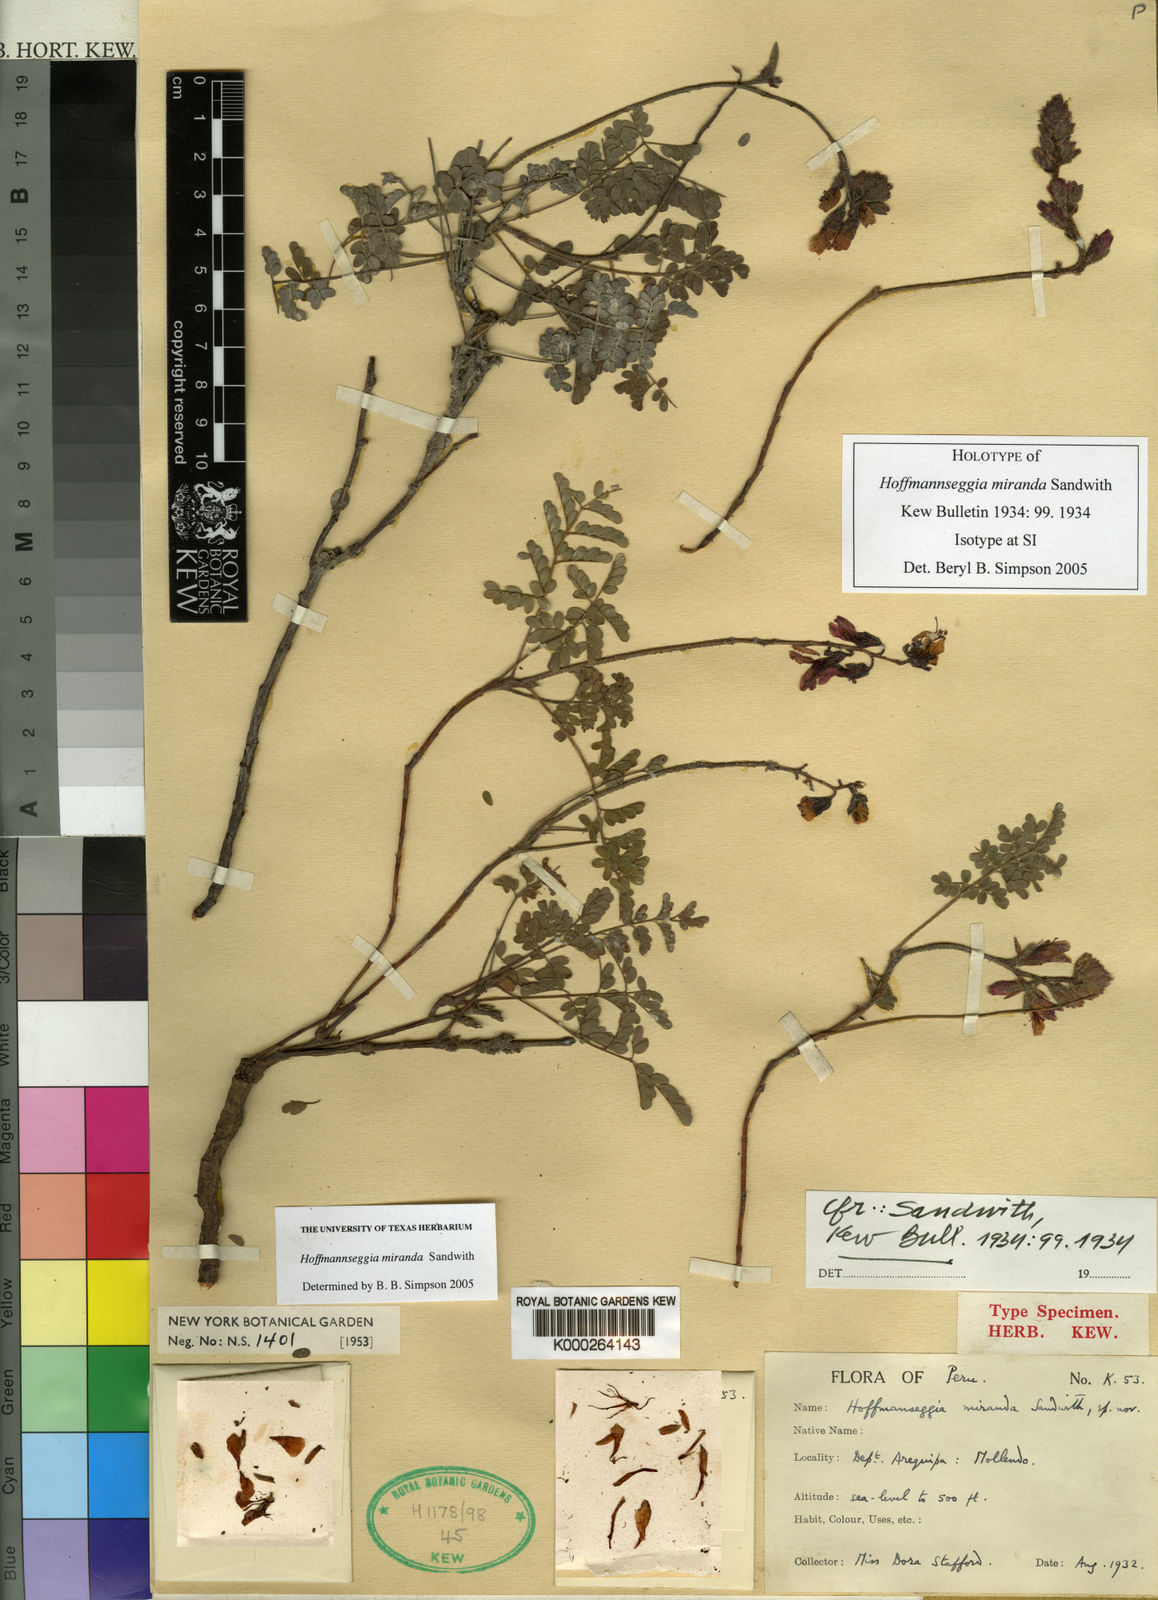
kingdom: Plantae
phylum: Tracheophyta
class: Magnoliopsida
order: Fabales
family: Fabaceae
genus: Hoffmannseggia
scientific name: Hoffmannseggia miranda
